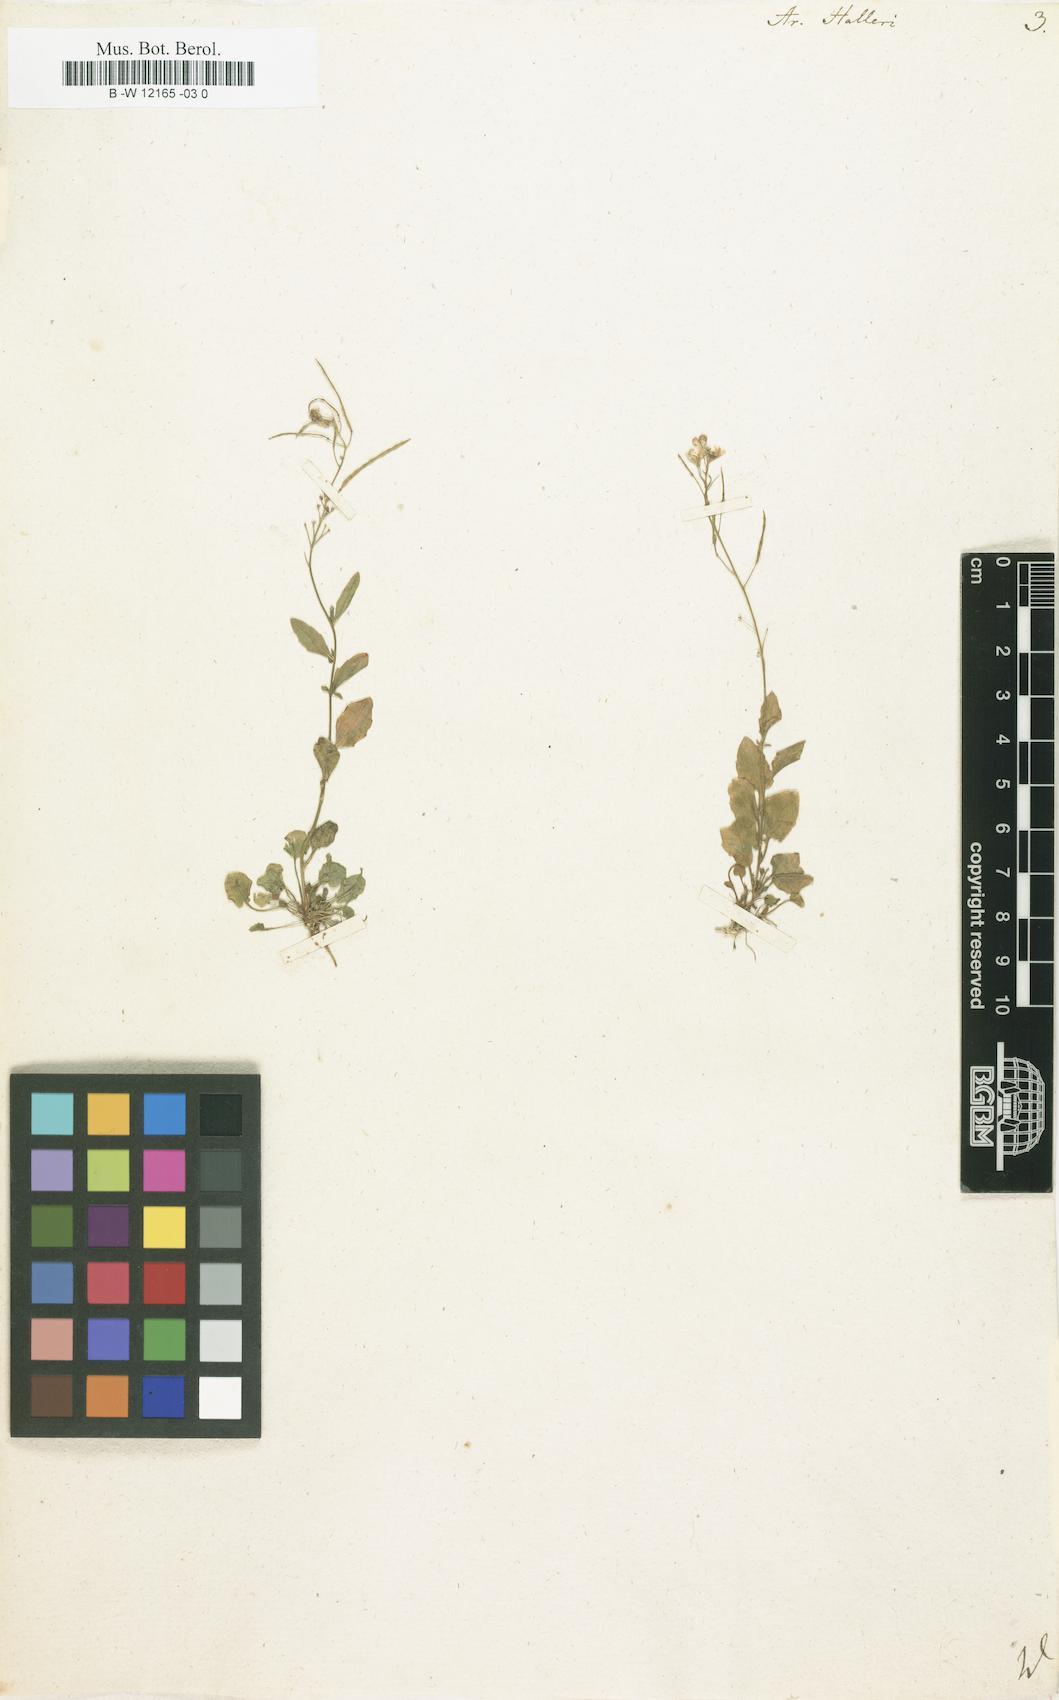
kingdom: Plantae
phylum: Tracheophyta
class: Magnoliopsida
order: Brassicales
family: Brassicaceae
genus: Arabidopsis
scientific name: Arabidopsis
